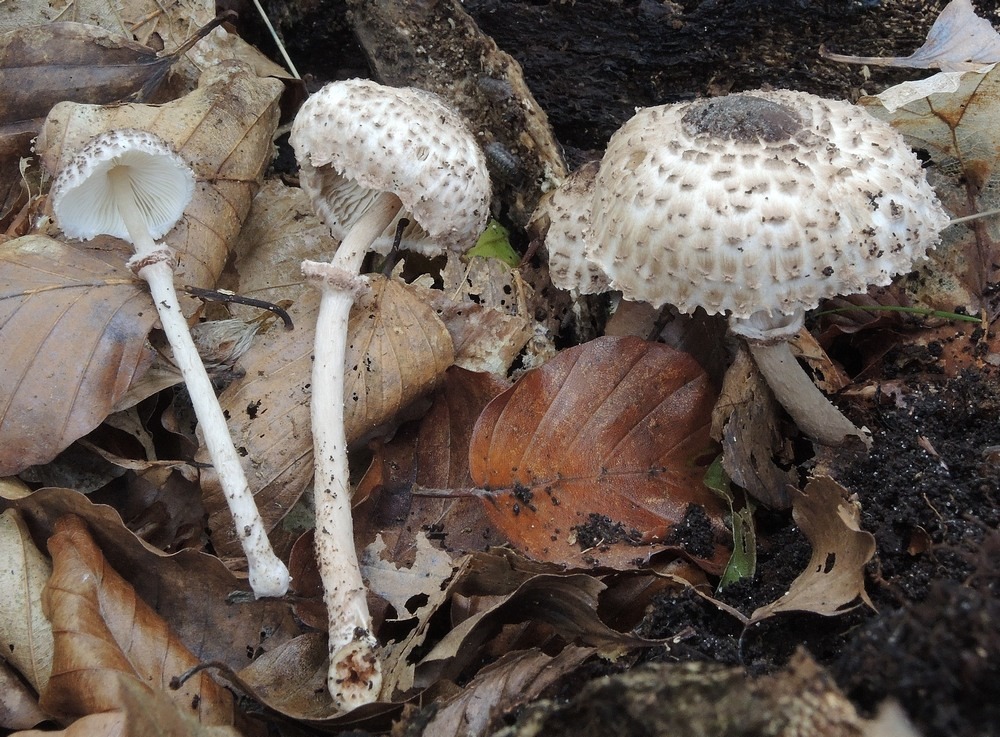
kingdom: Fungi
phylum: Basidiomycota
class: Agaricomycetes
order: Agaricales
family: Agaricaceae
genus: Lepiota
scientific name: Lepiota felina
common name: sortskællet parasolhat
